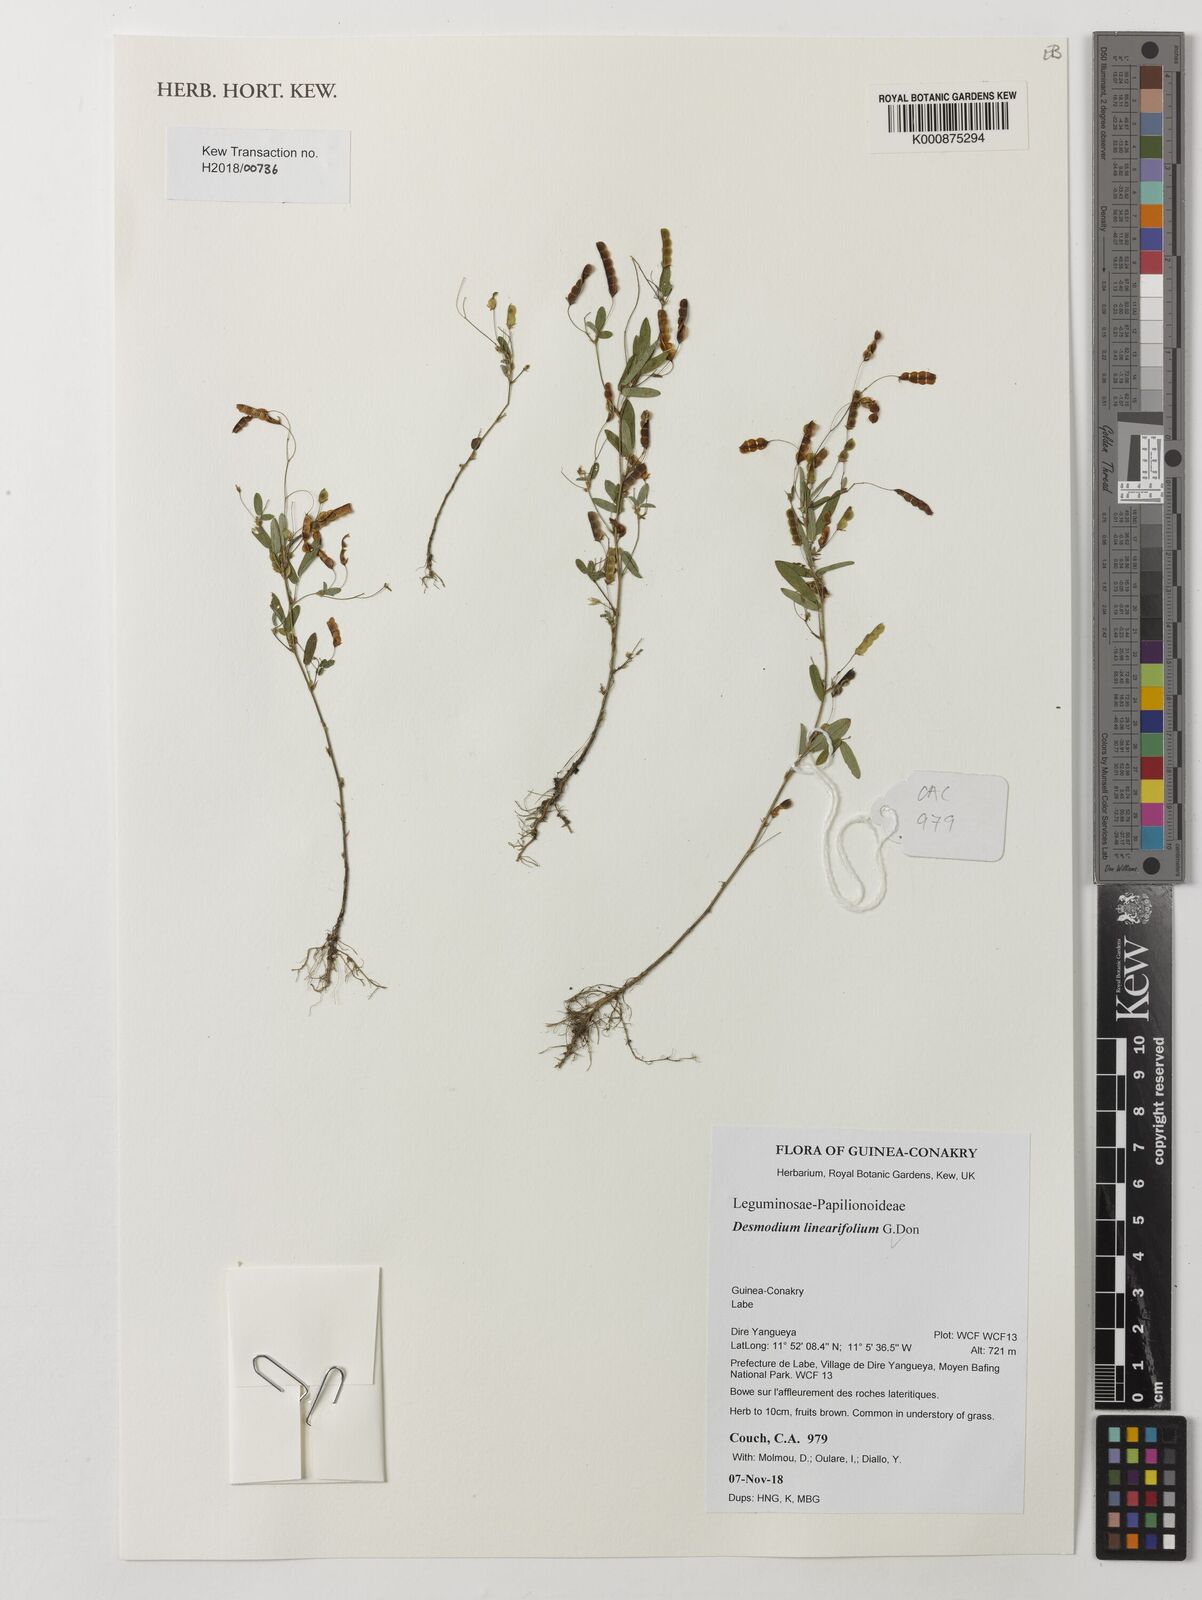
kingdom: Plantae
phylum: Tracheophyta
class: Magnoliopsida
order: Fabales
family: Fabaceae
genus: Desmodium
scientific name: Desmodium linearifolium
